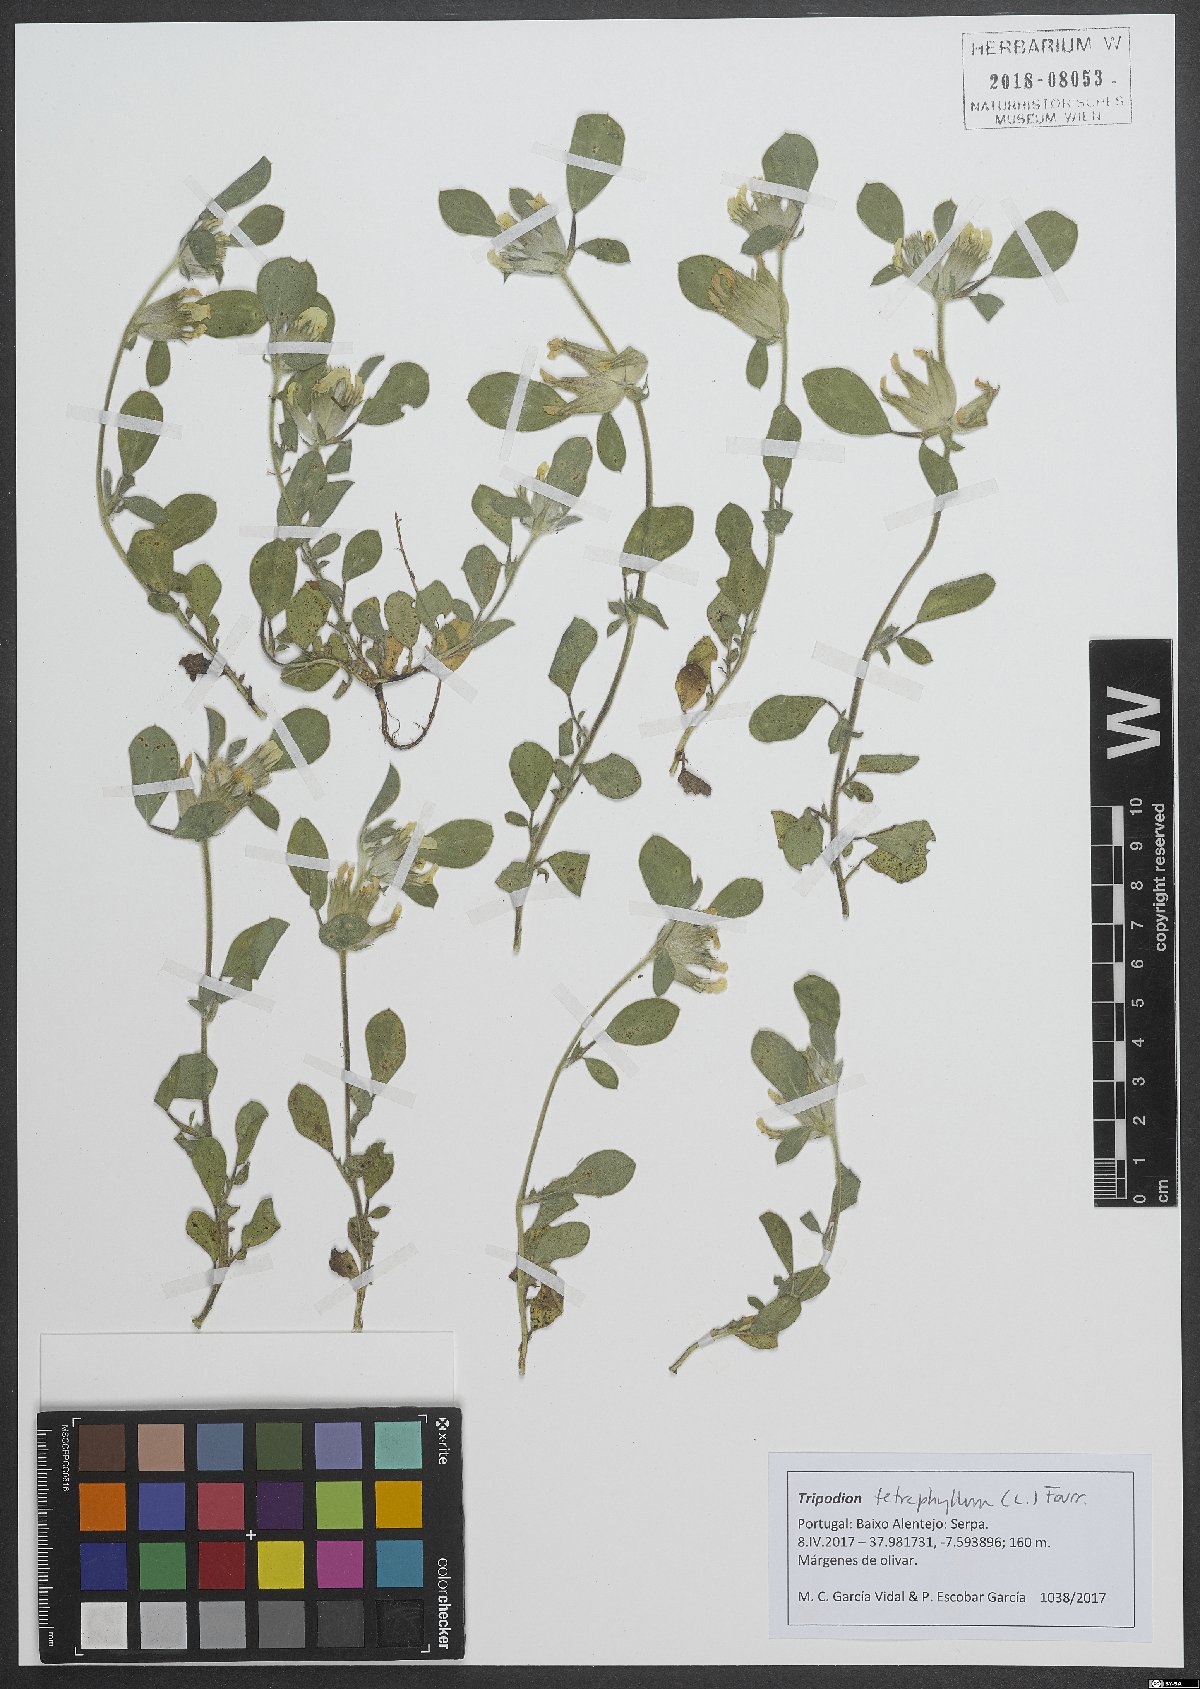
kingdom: Plantae
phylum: Tracheophyta
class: Magnoliopsida
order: Fabales
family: Fabaceae
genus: Tripodion
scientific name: Tripodion tetraphyllum
